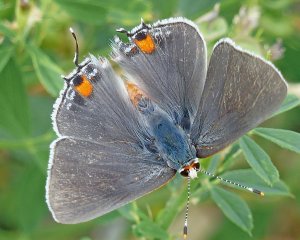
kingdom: Animalia
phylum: Arthropoda
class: Insecta
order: Lepidoptera
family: Lycaenidae
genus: Strymon
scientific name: Strymon melinus
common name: Gray Hairstreak
